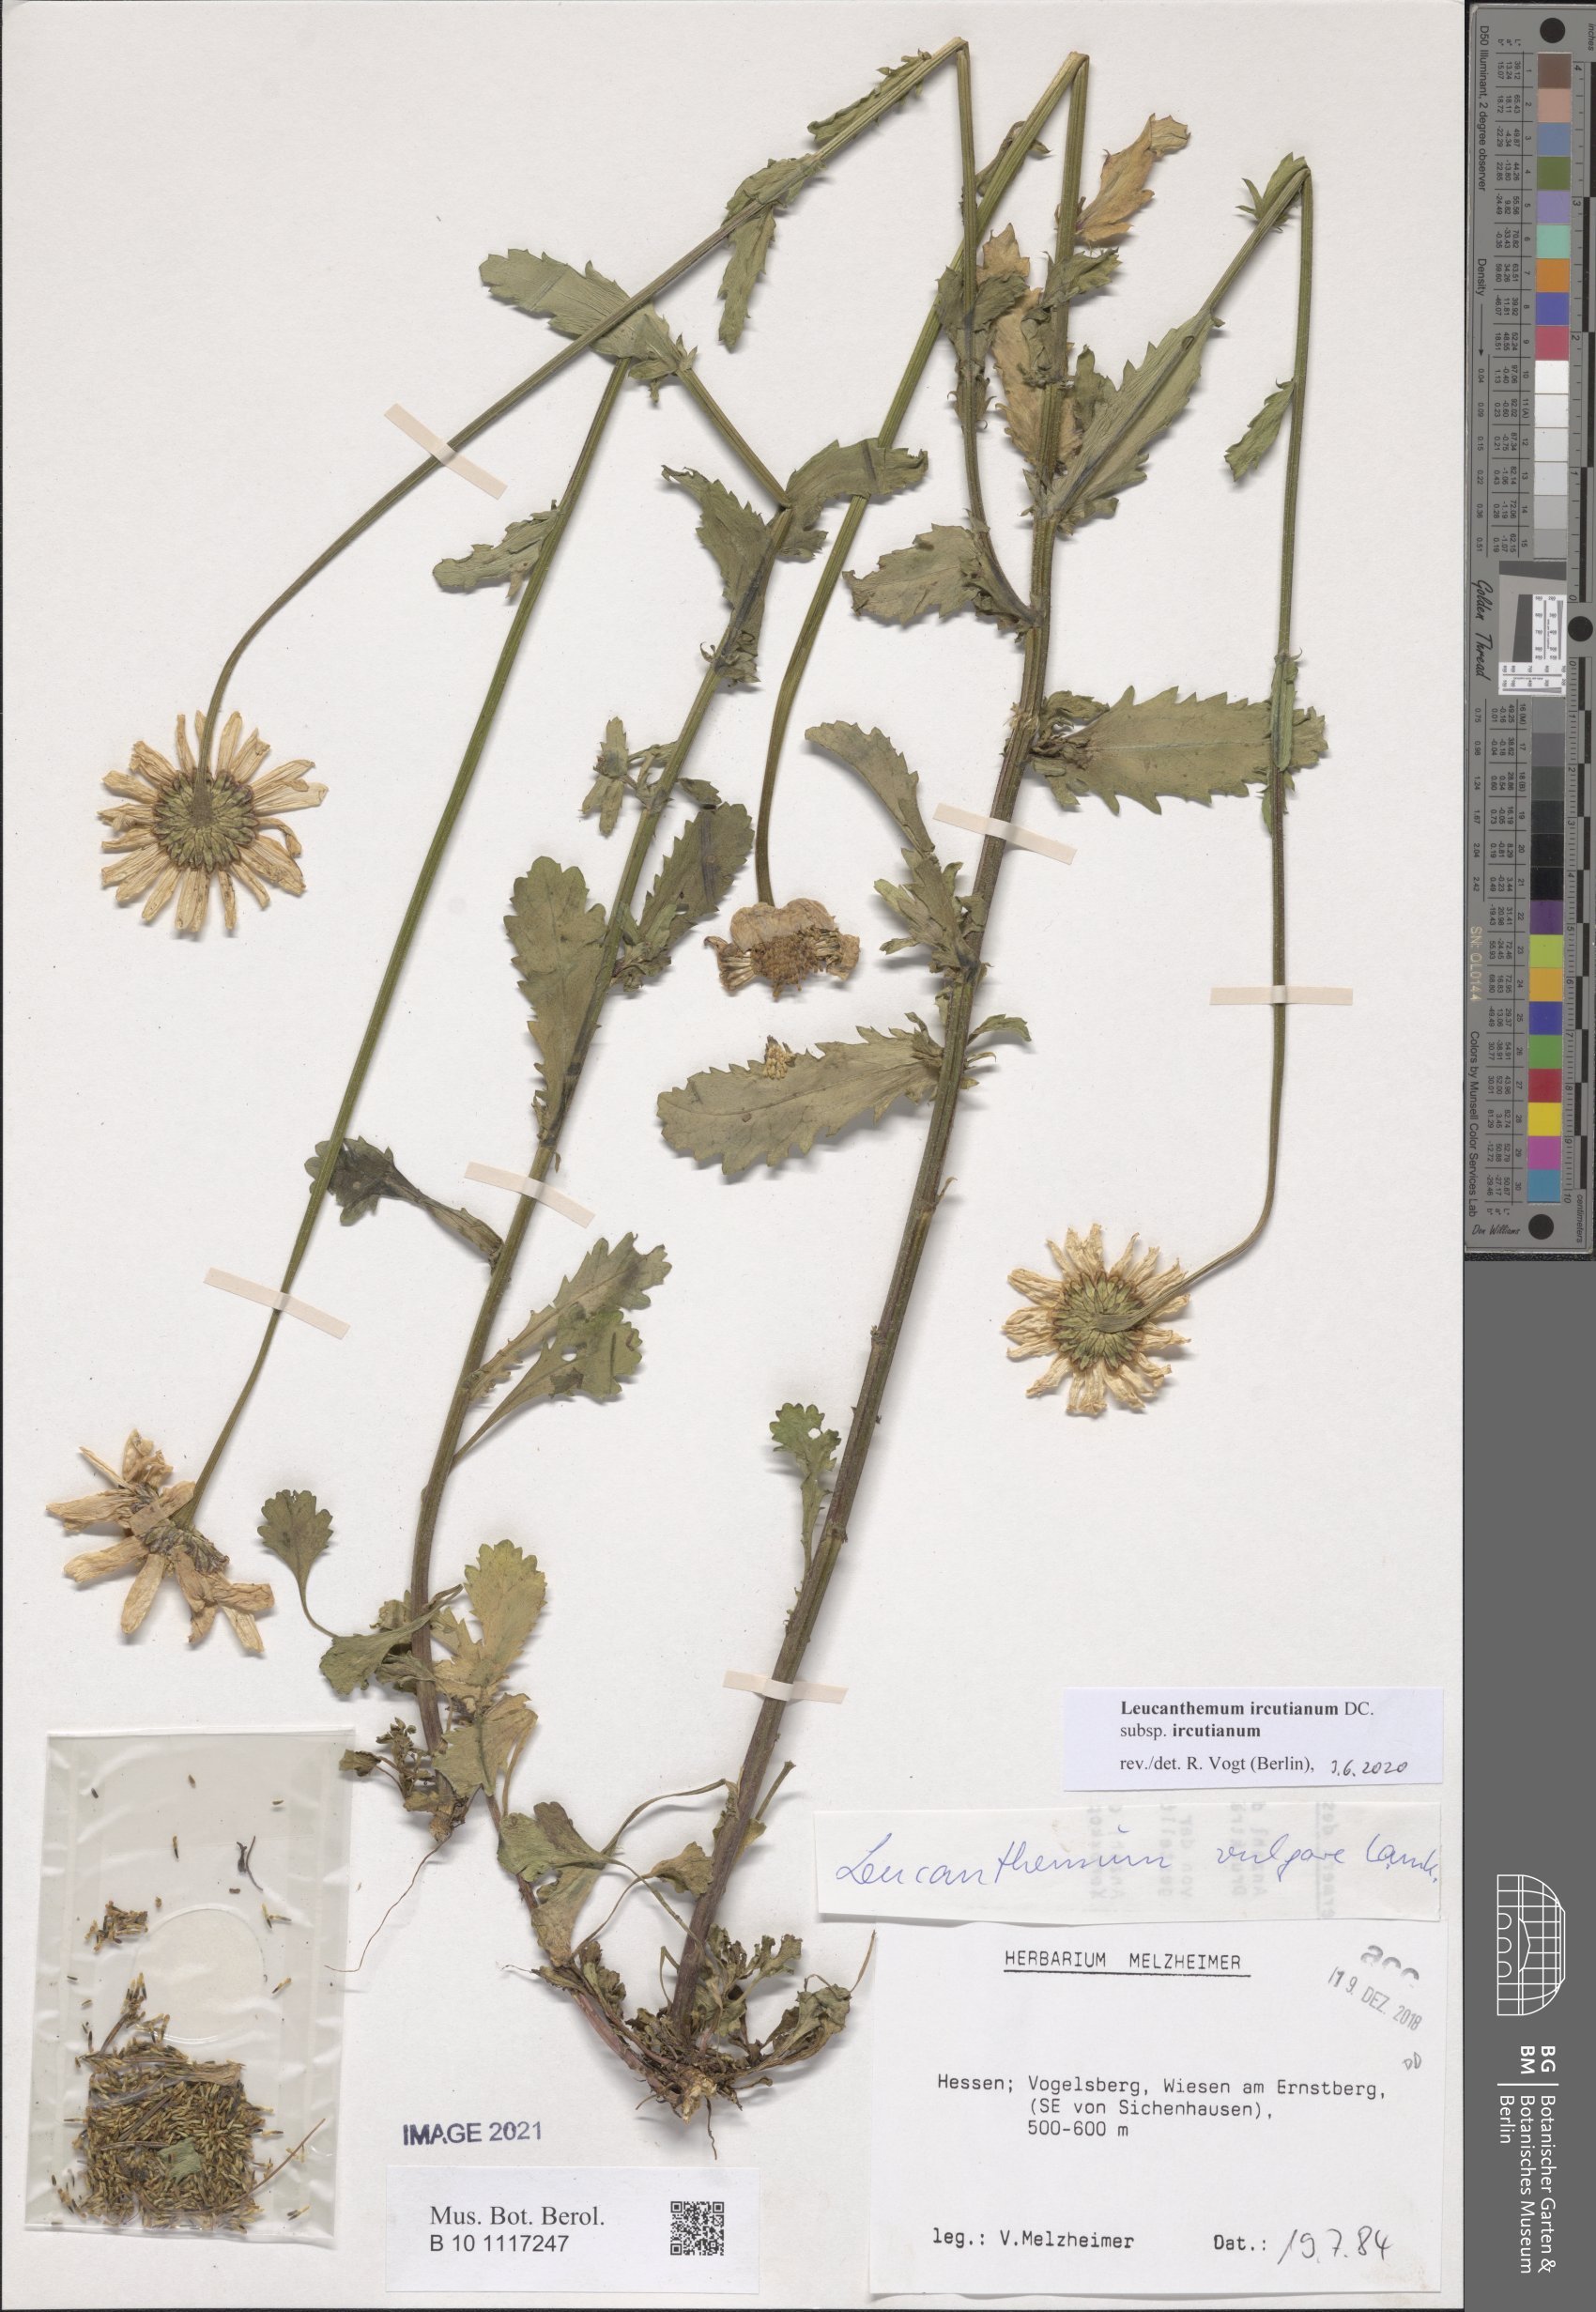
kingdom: Plantae
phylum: Tracheophyta
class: Magnoliopsida
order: Asterales
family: Asteraceae
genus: Leucanthemum
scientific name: Leucanthemum ircutianum
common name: Daisy
